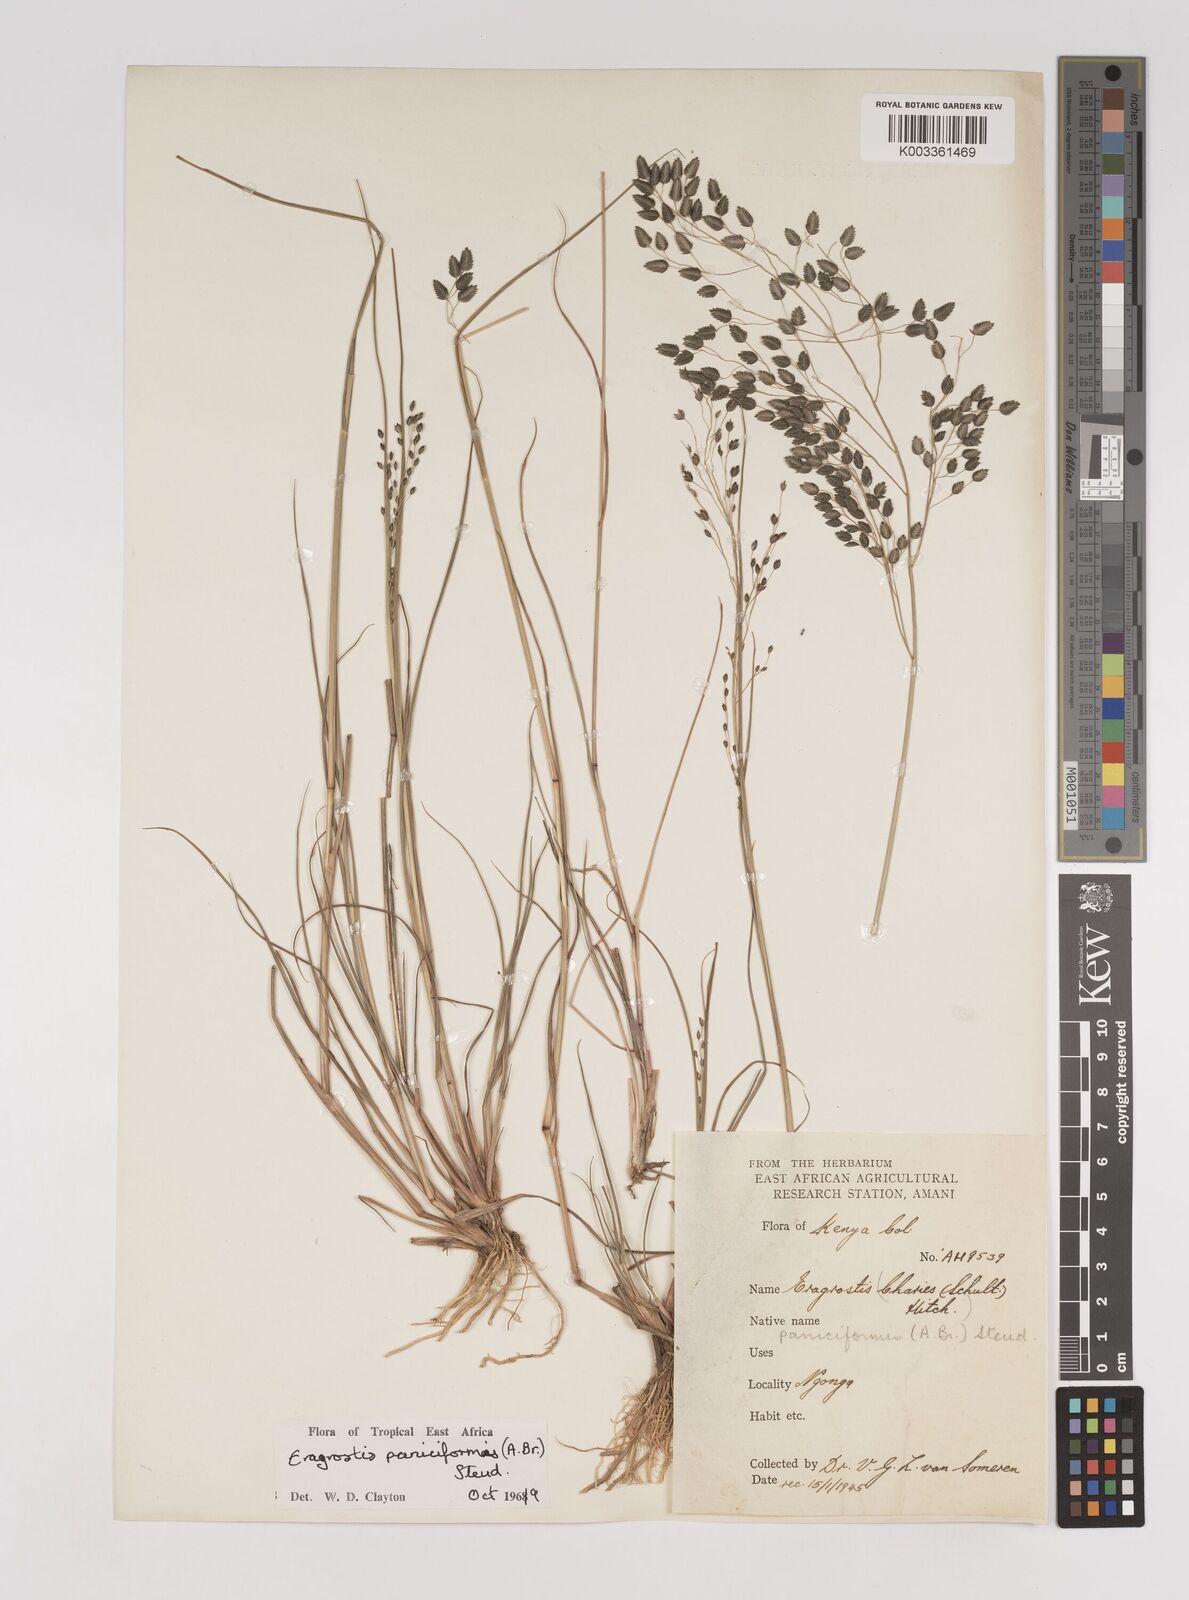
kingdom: Plantae
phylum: Tracheophyta
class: Liliopsida
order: Poales
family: Poaceae
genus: Eragrostis
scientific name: Eragrostis paniciformis
